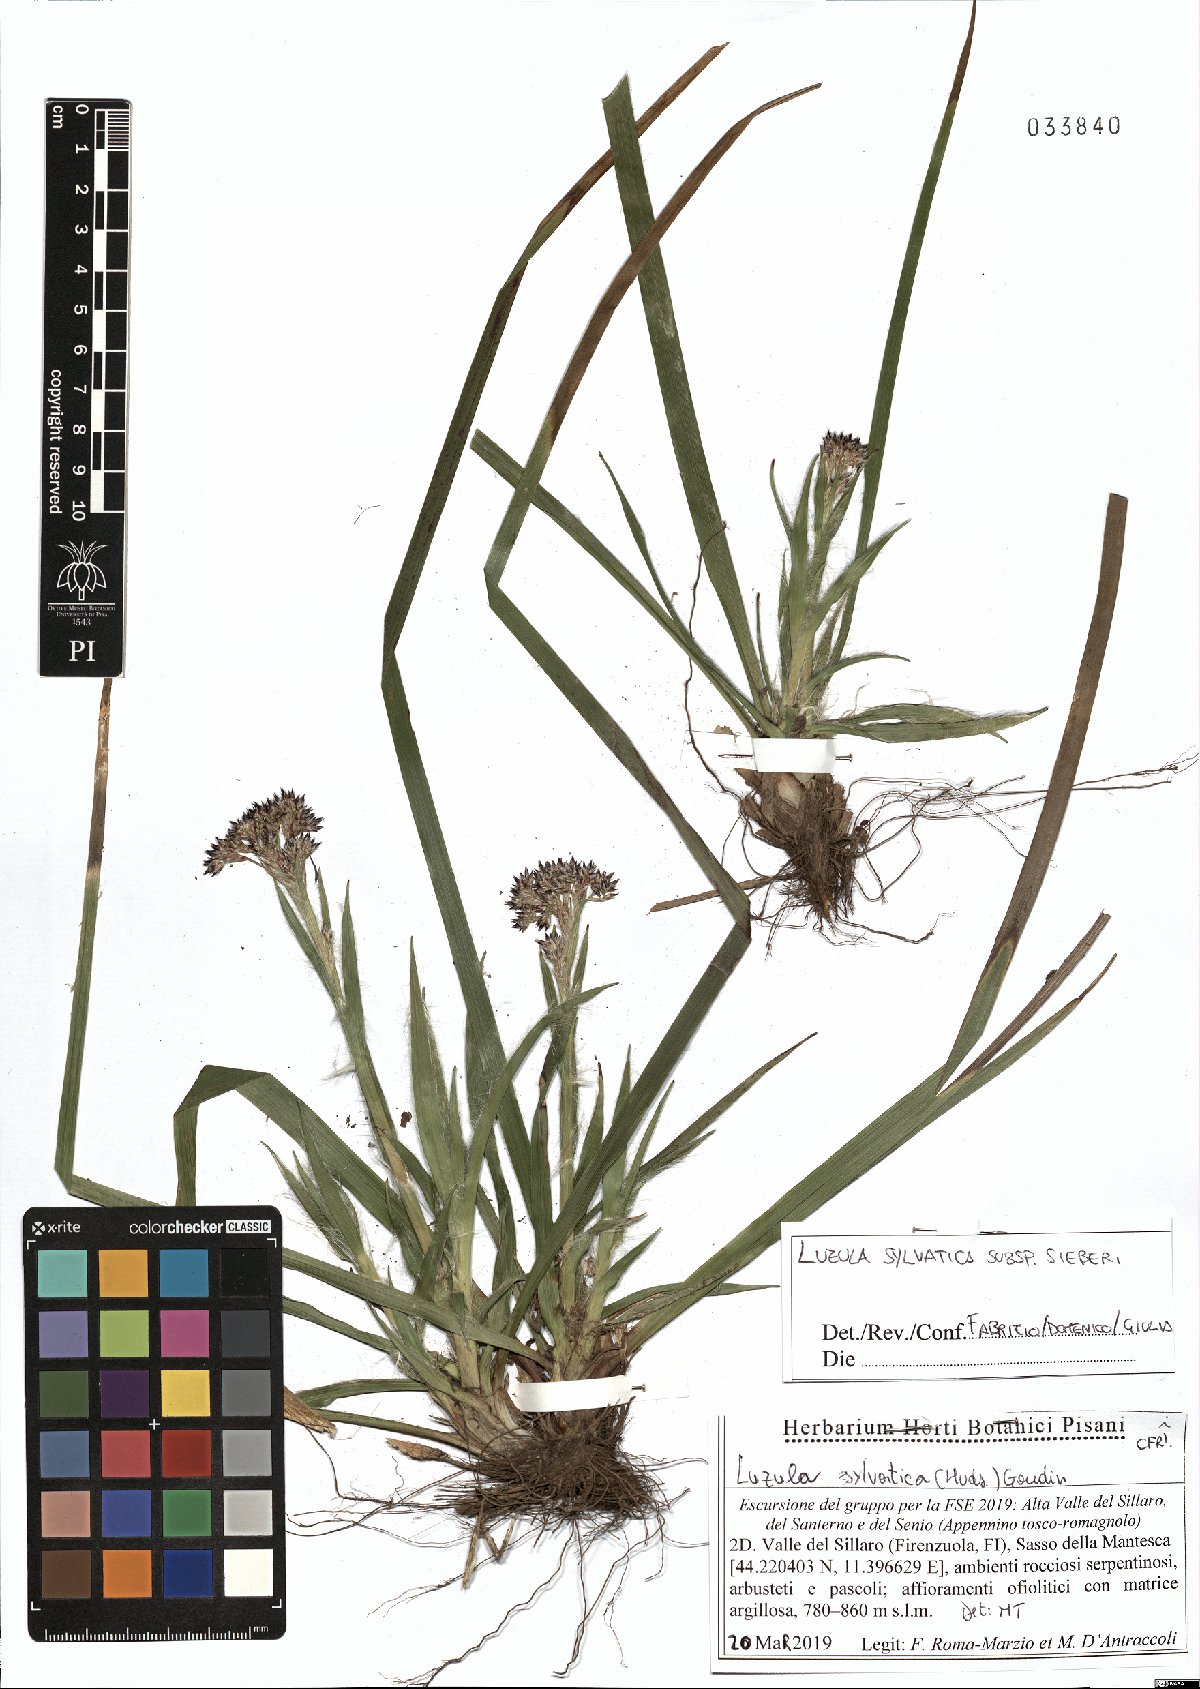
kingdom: Plantae
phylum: Tracheophyta
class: Liliopsida
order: Poales
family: Juncaceae
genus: Luzula
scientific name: Luzula sylvatica
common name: Great wood-rush
